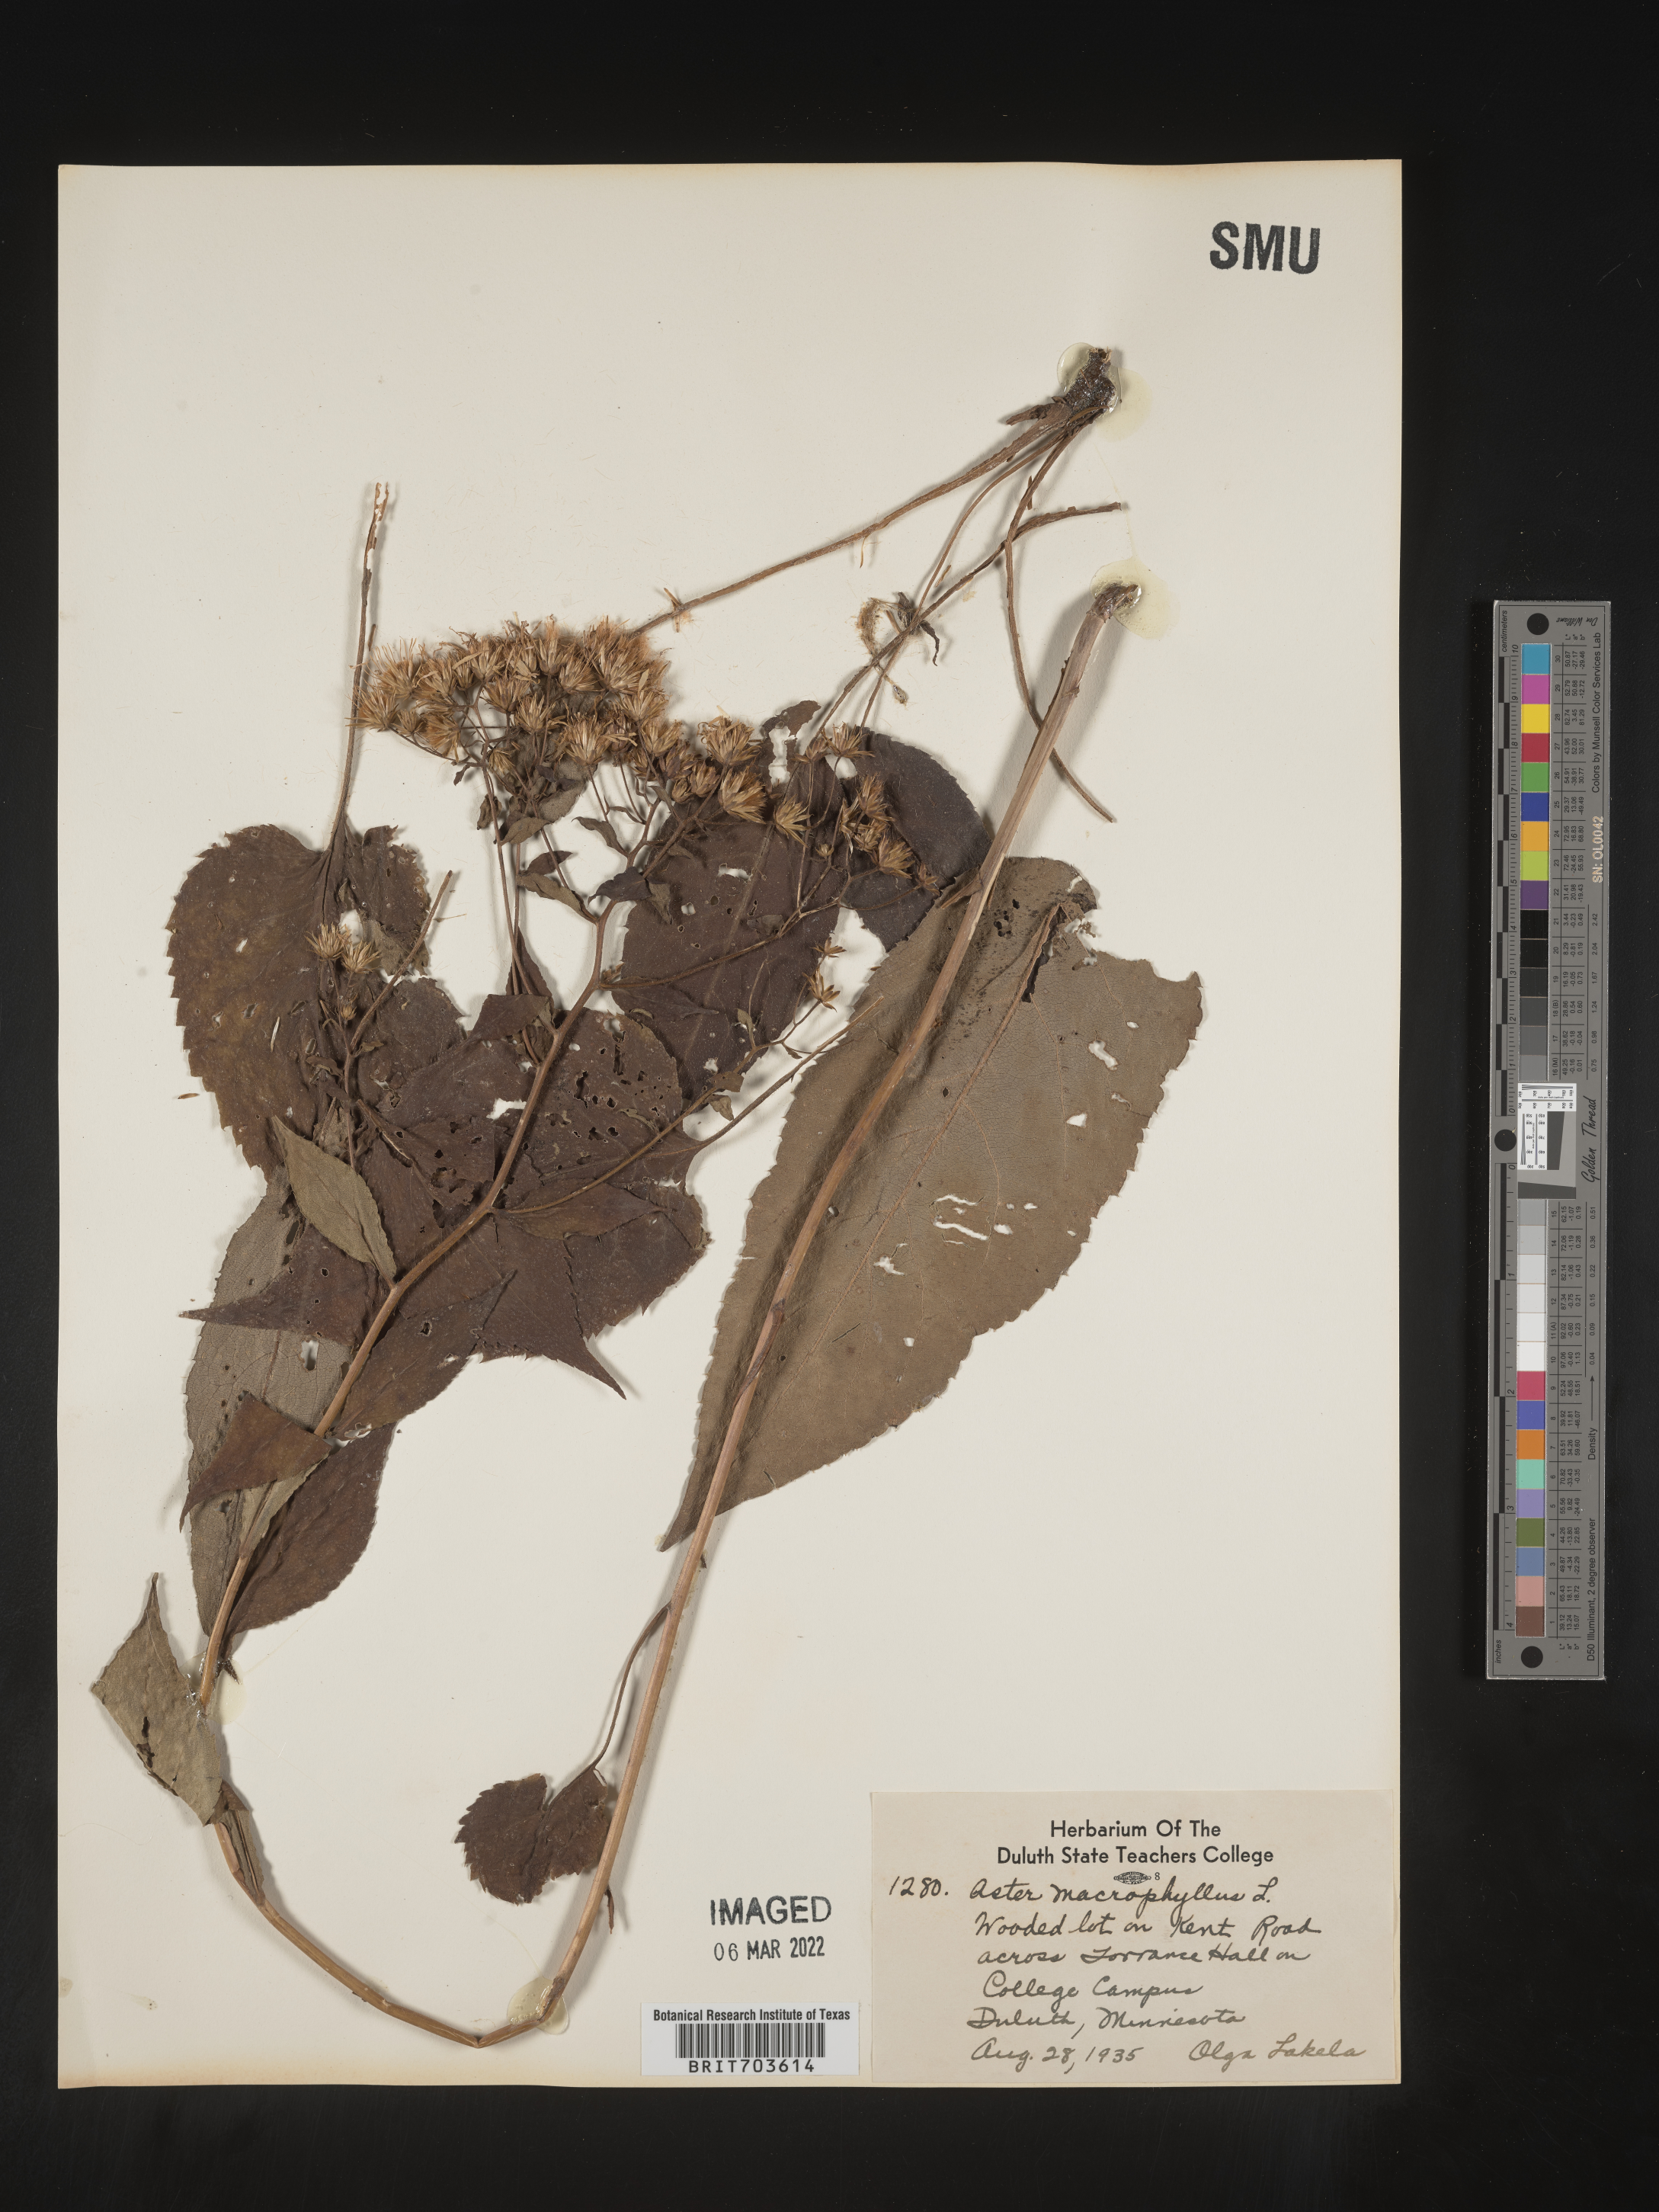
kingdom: Plantae
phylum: Tracheophyta
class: Magnoliopsida
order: Asterales
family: Asteraceae
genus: Eurybia
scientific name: Eurybia macrophylla
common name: Big-leaved aster
